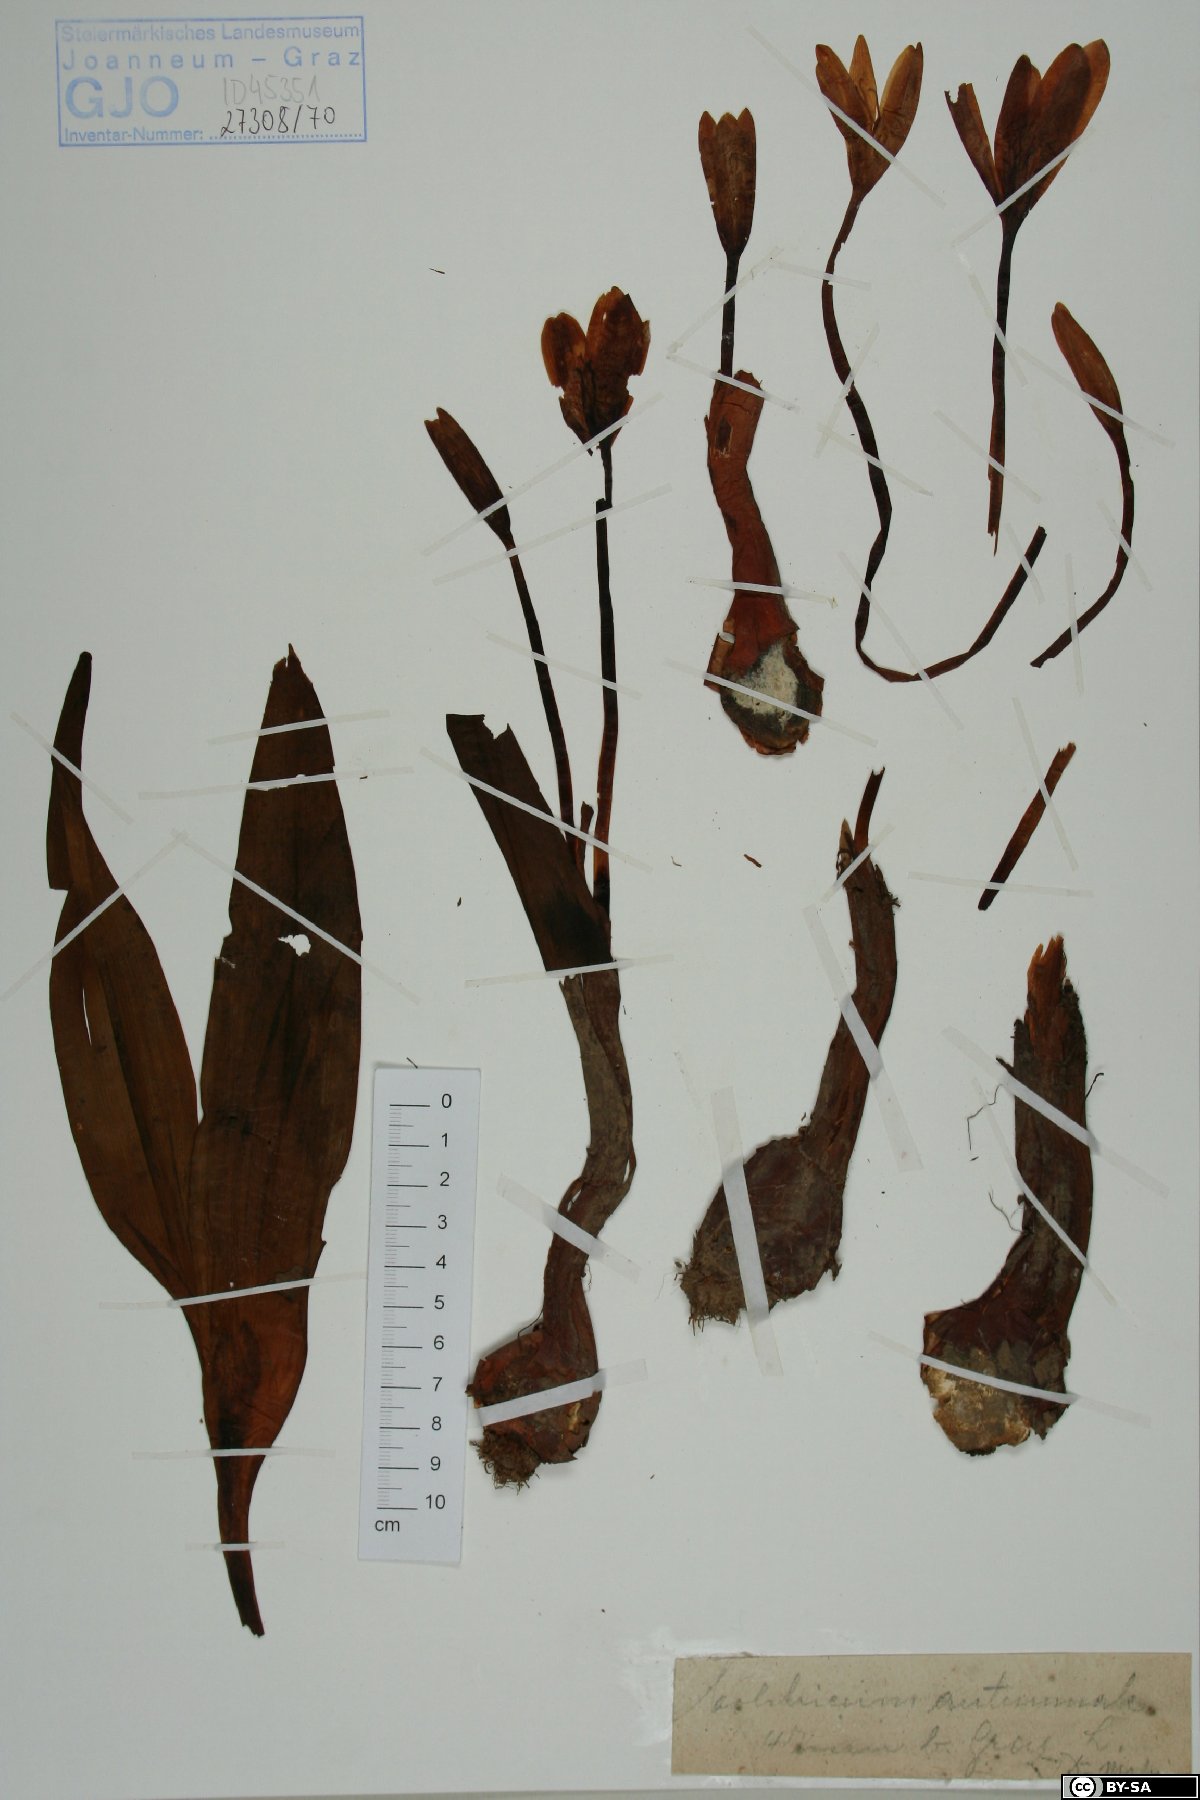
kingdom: Plantae
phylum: Tracheophyta
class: Liliopsida
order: Liliales
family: Colchicaceae
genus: Colchicum
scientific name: Colchicum autumnale
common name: Autumn crocus
